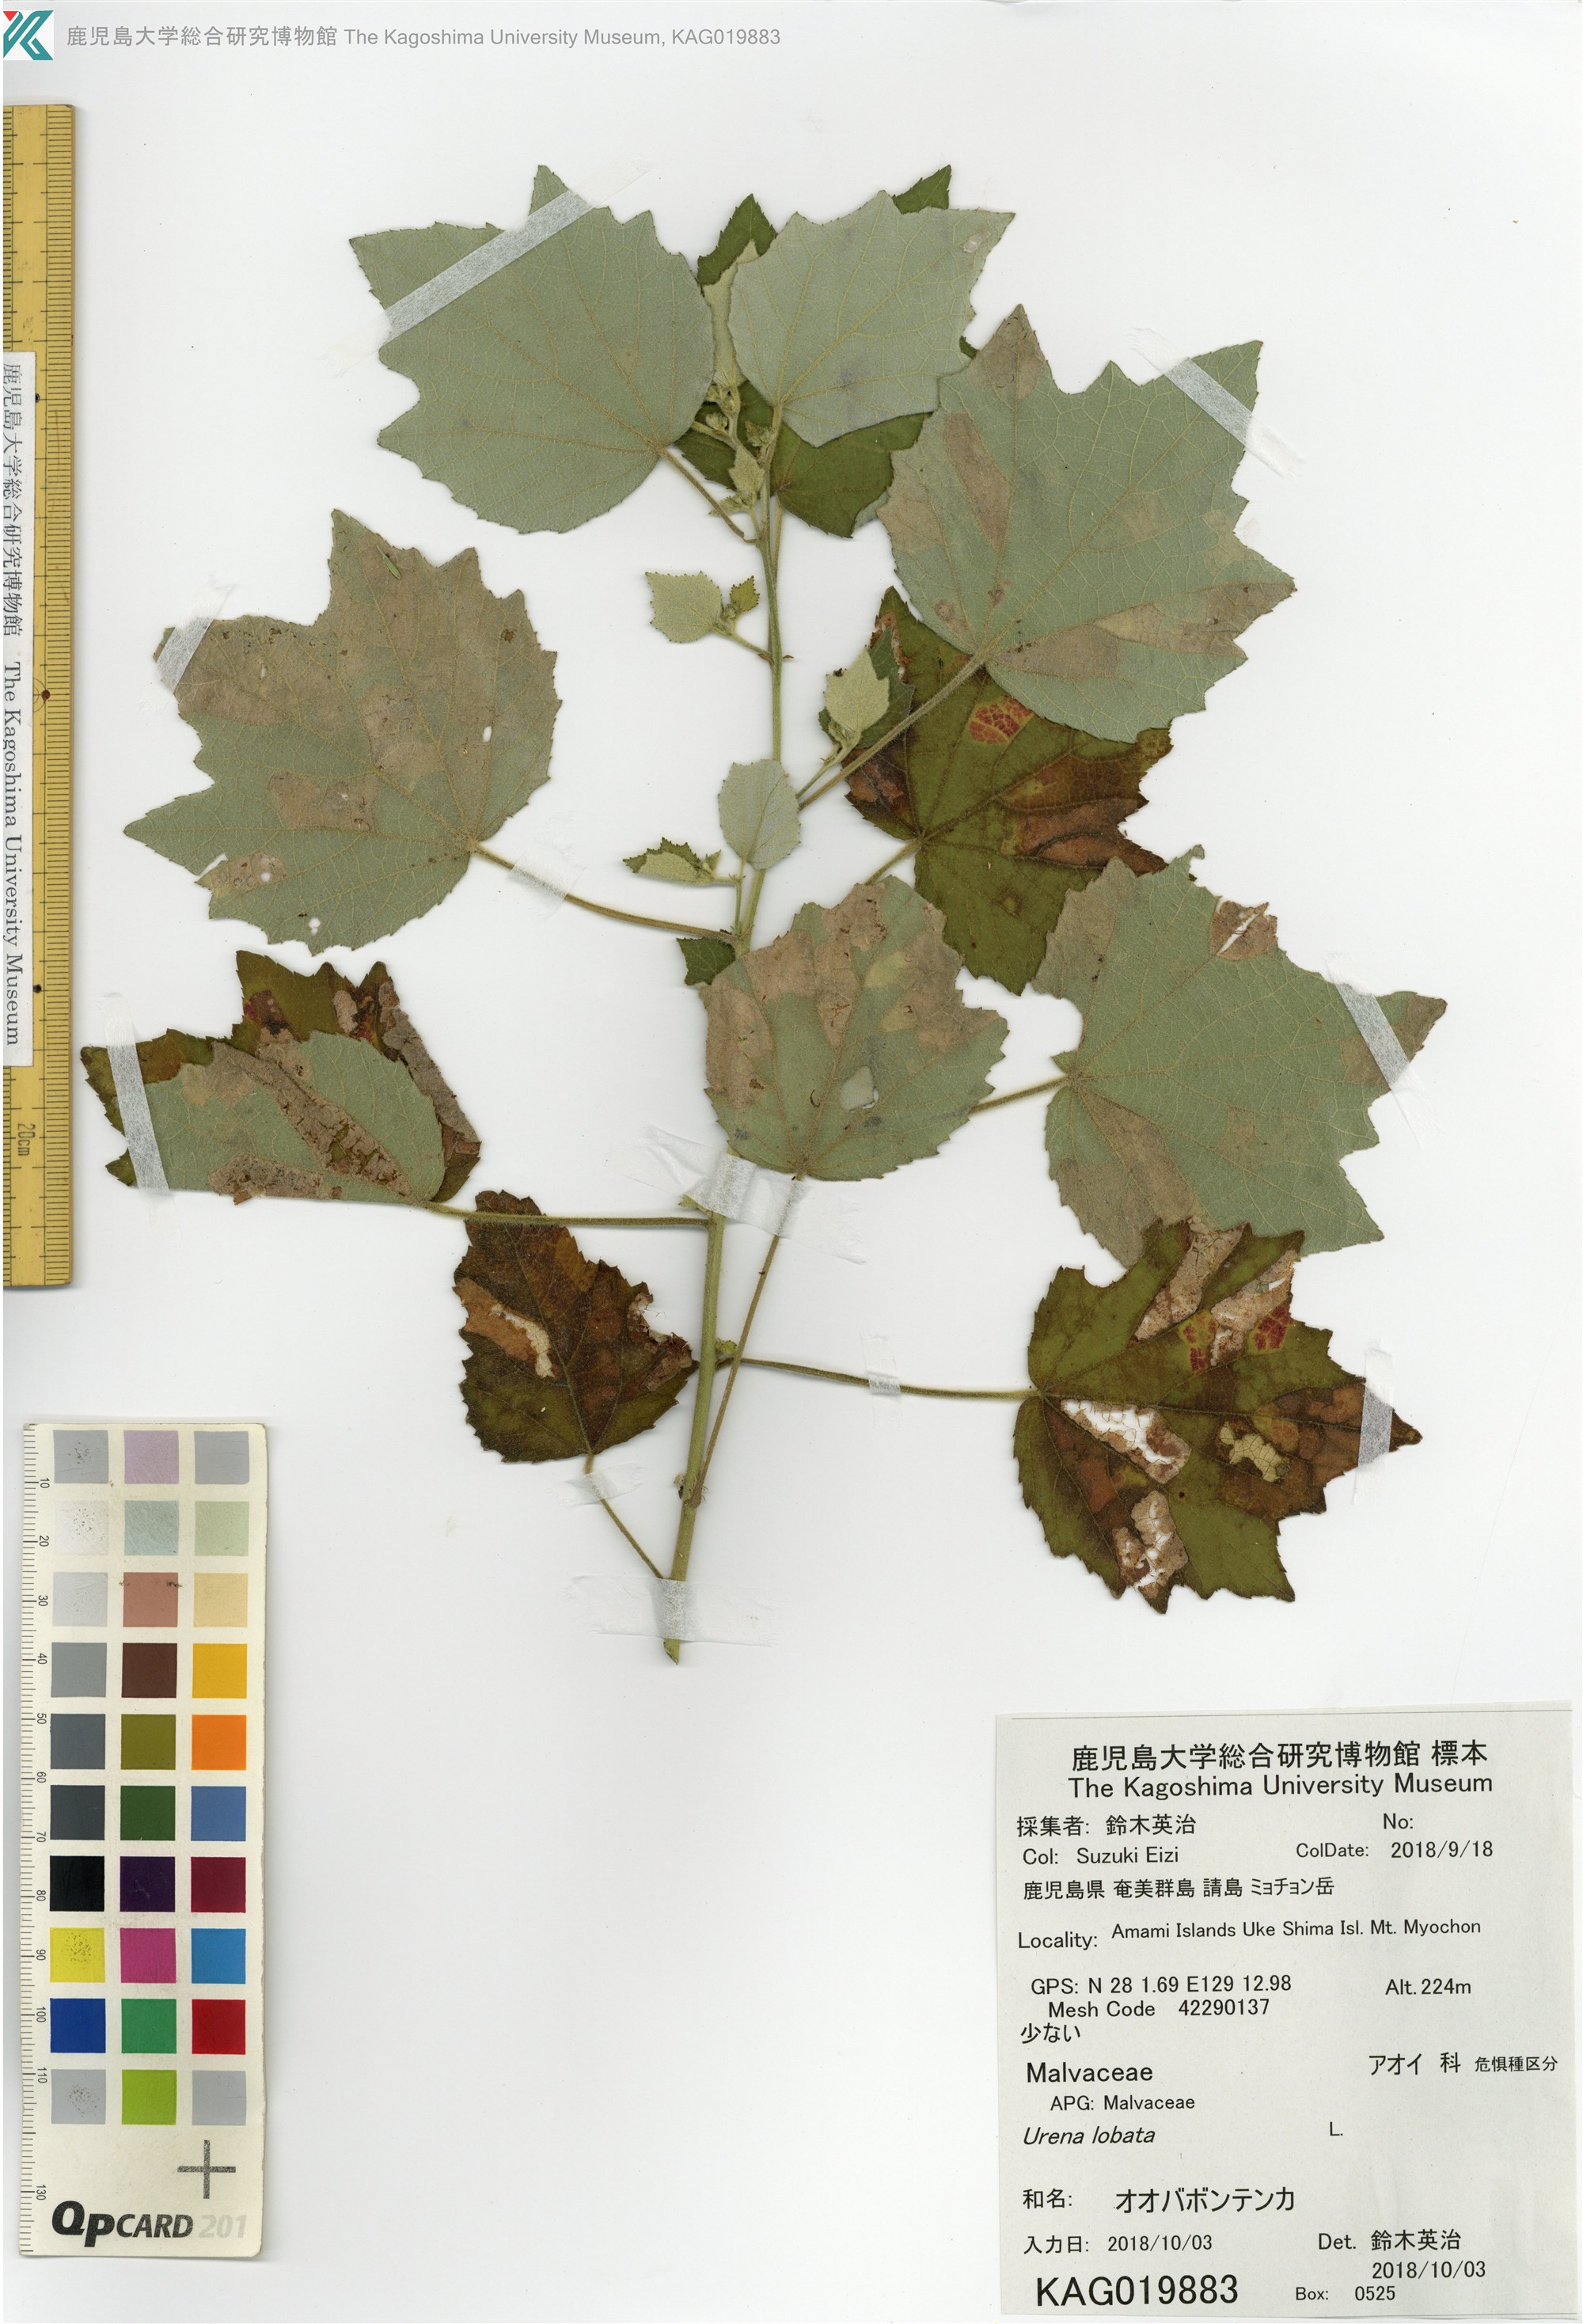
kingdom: Plantae
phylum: Tracheophyta
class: Magnoliopsida
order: Malvales
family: Malvaceae
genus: Urena
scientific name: Urena lobata
